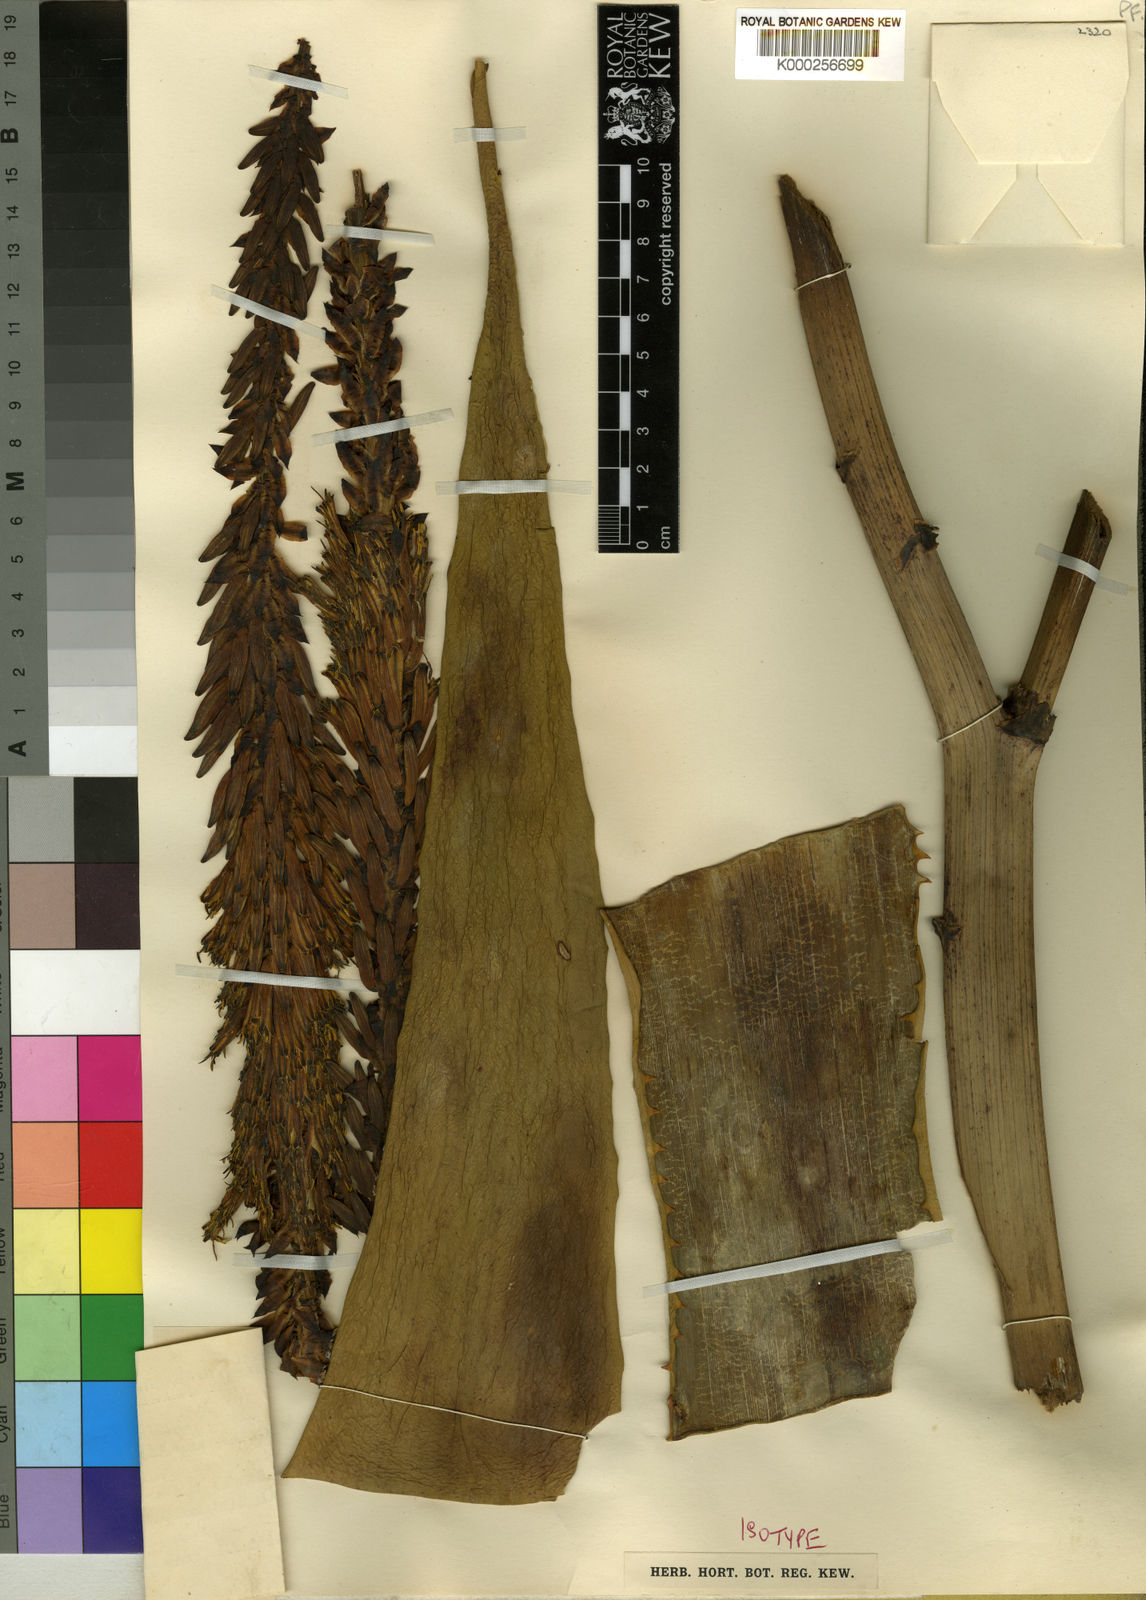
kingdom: Plantae
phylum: Tracheophyta
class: Liliopsida
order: Asparagales
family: Asphodelaceae
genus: Aloe
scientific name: Aloe gerstneri
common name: Gerstner's aloe
